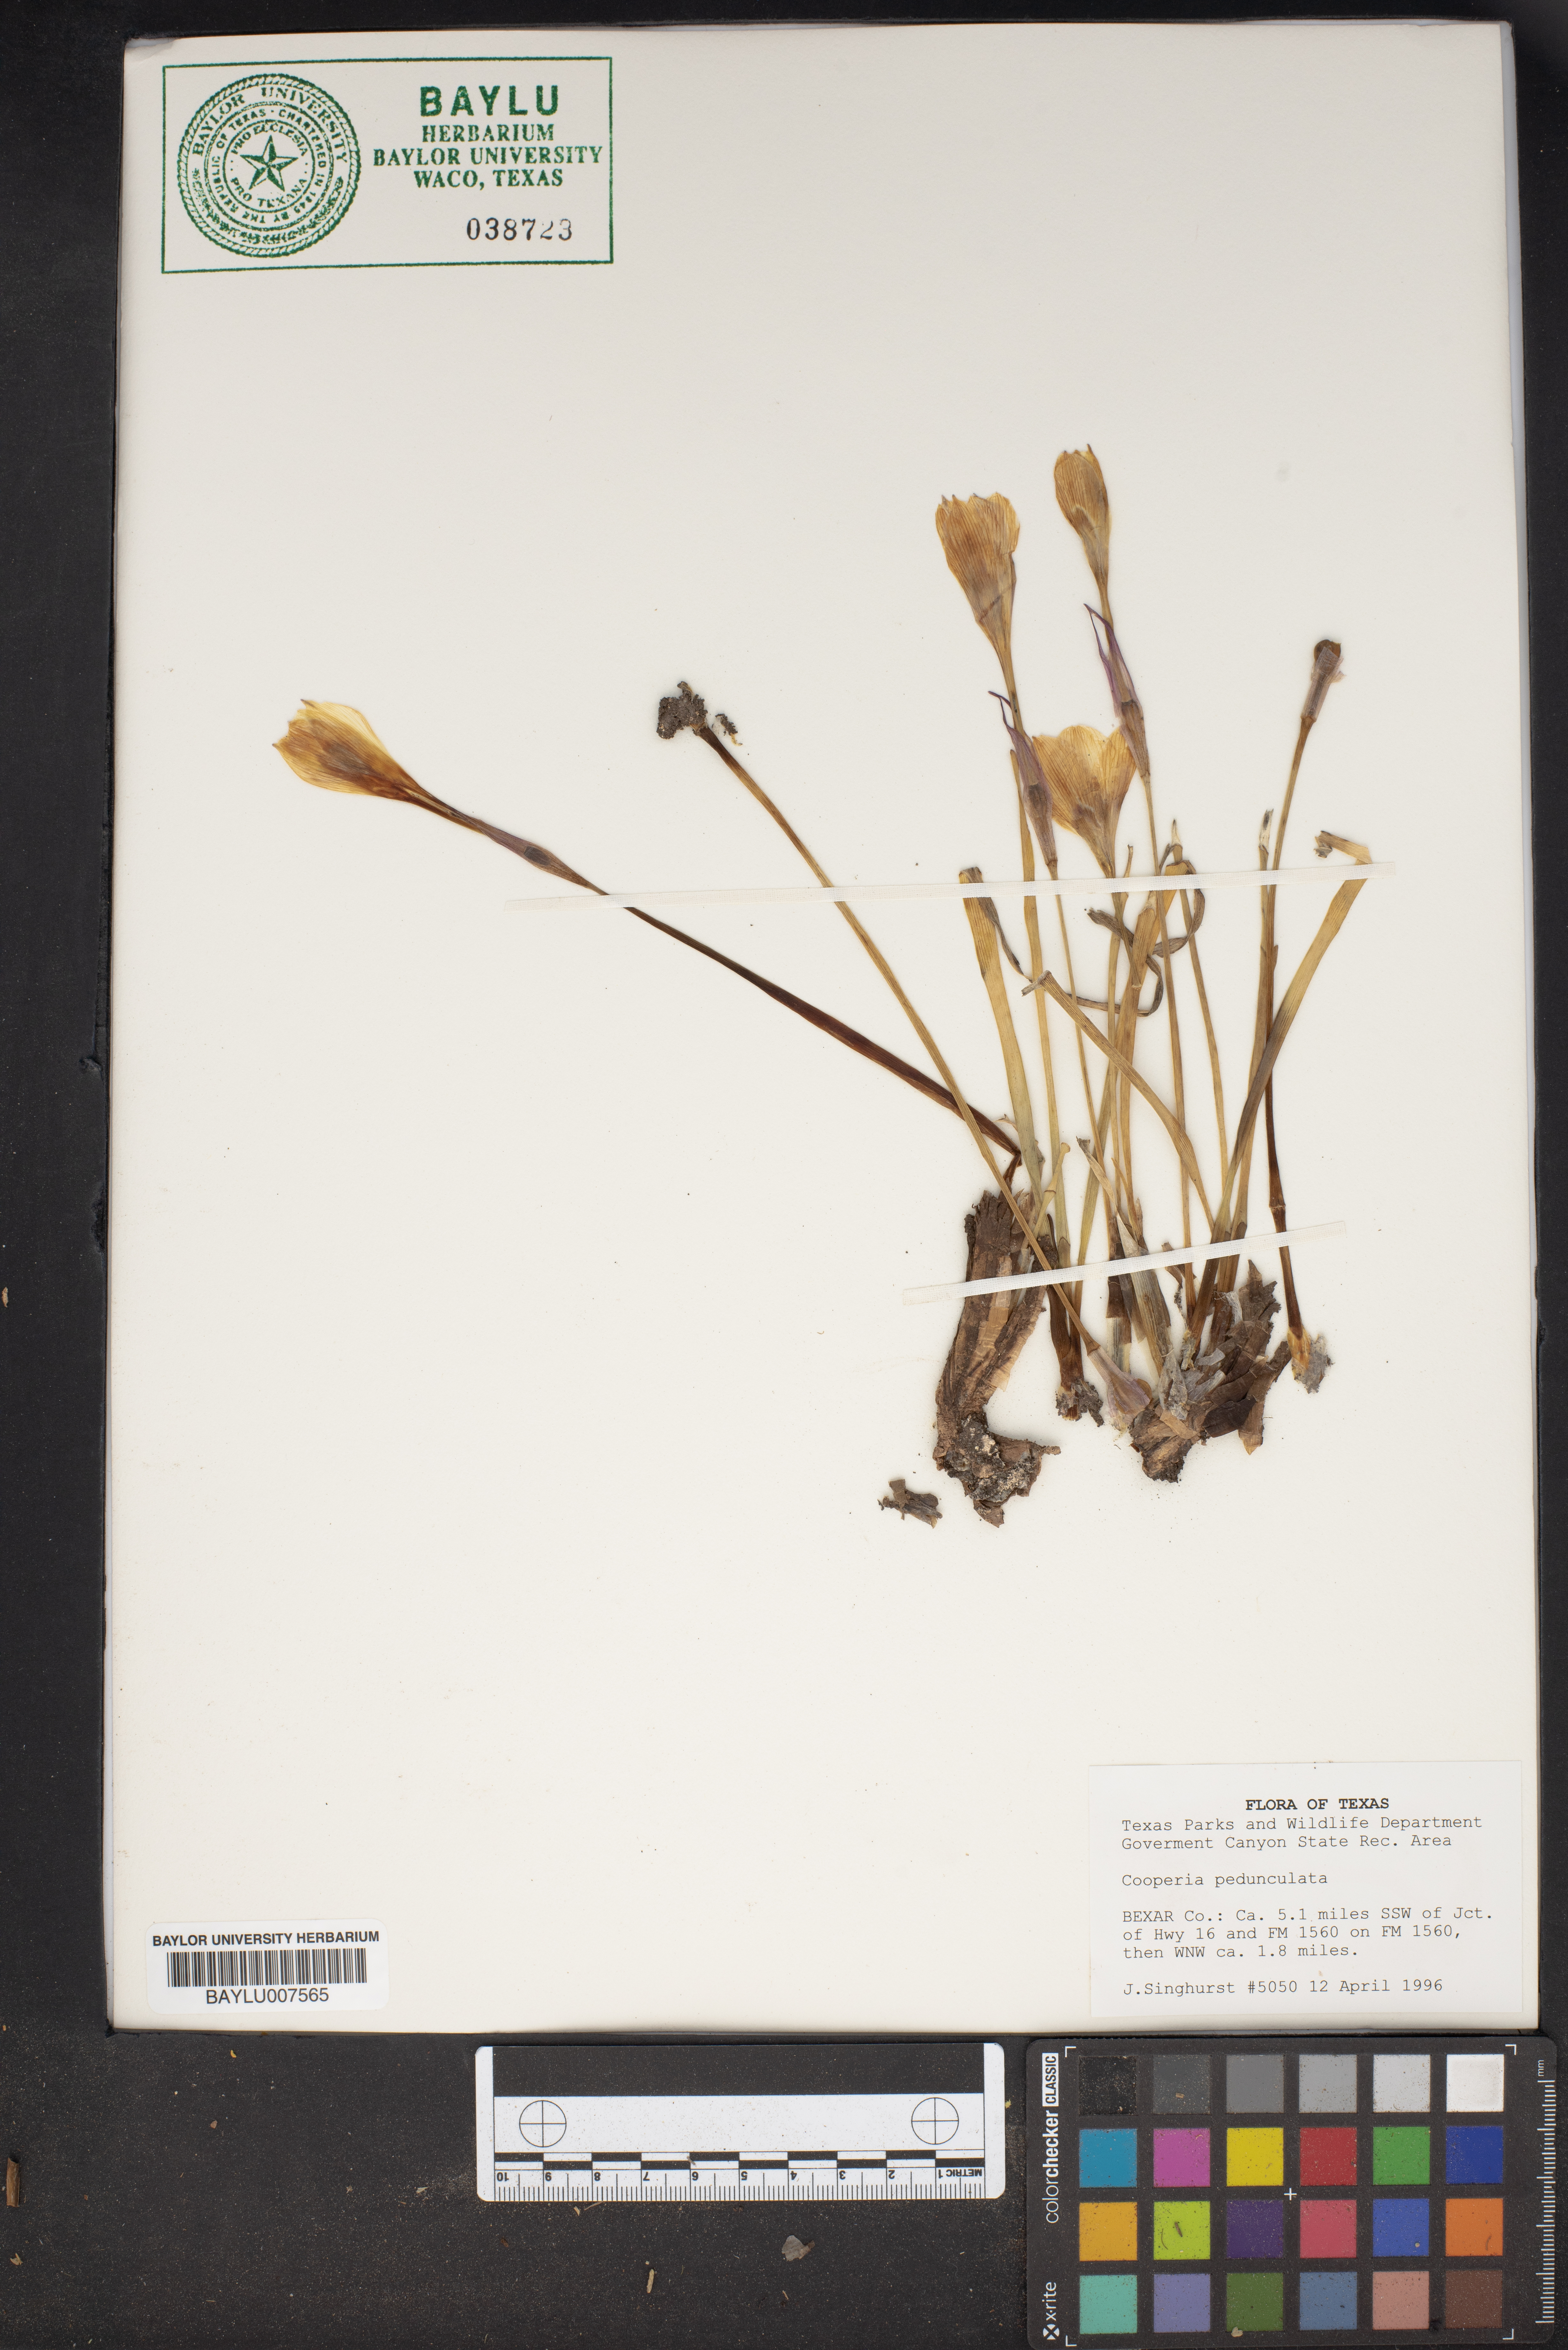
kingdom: Plantae
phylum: Tracheophyta
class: Liliopsida
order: Asparagales
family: Amaryllidaceae
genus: Zephyranthes
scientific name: Zephyranthes drummondii
